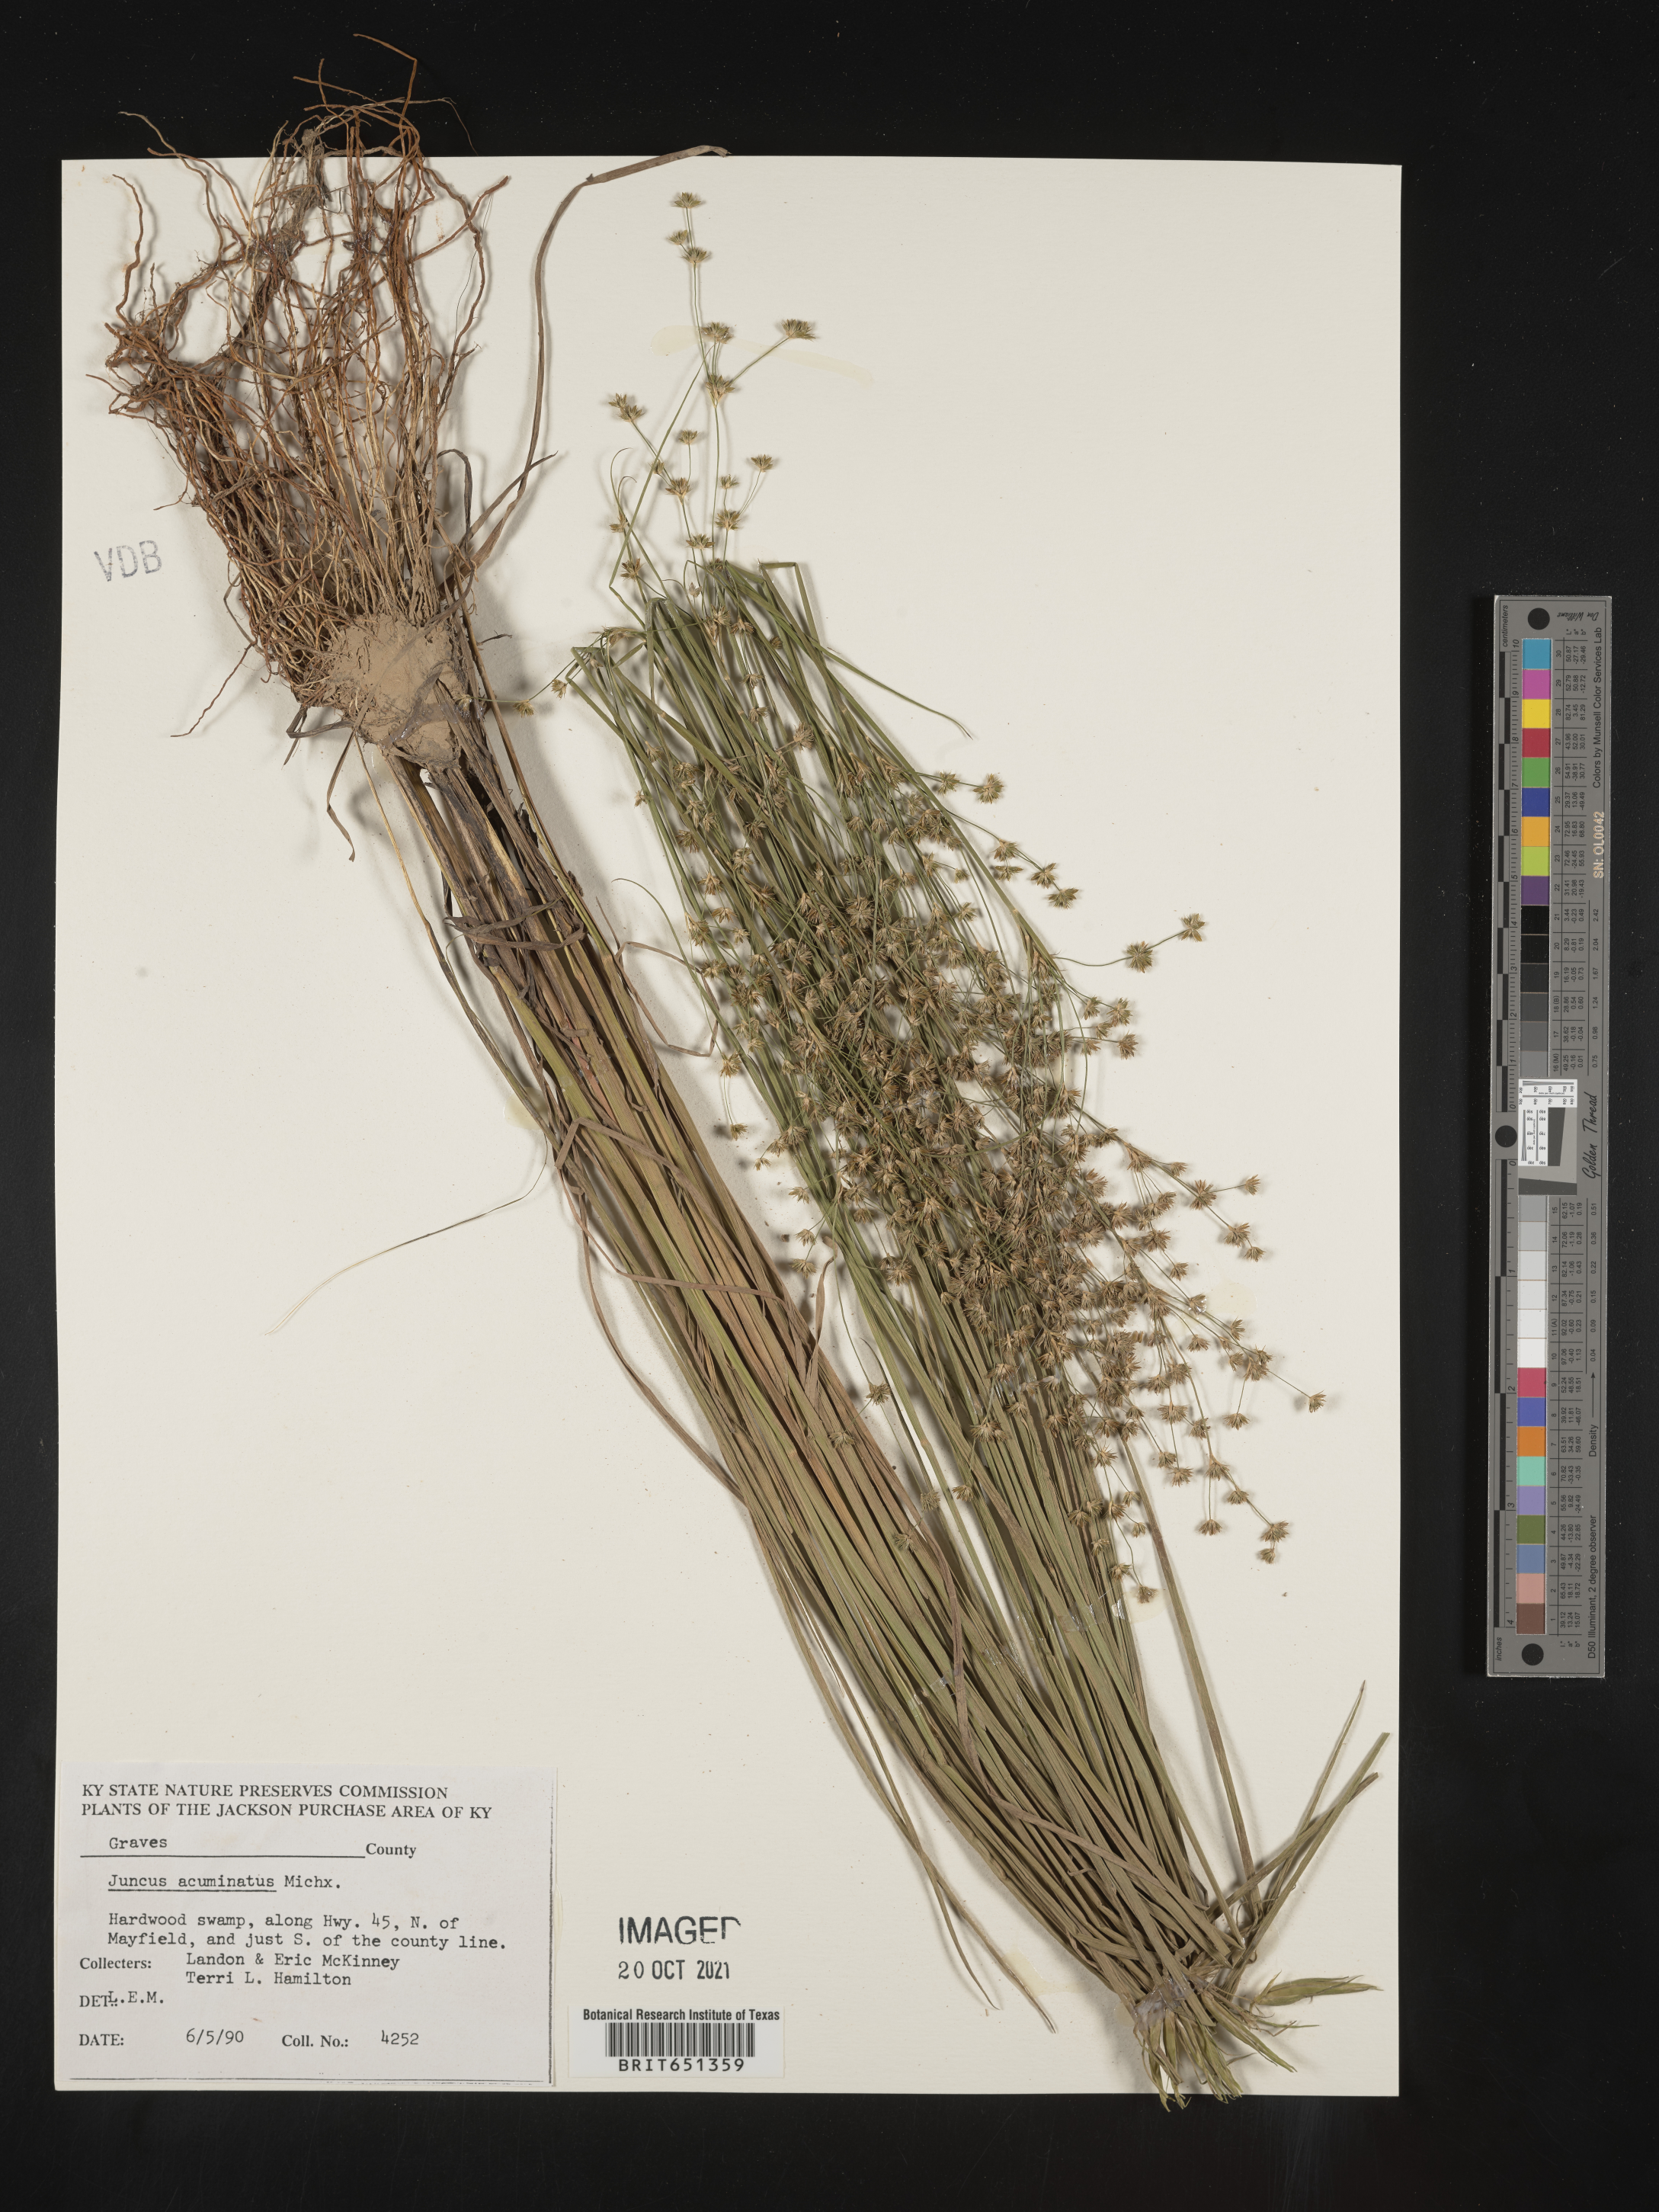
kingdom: Plantae
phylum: Tracheophyta
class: Liliopsida
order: Poales
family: Juncaceae
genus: Juncus
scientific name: Juncus acuminatus
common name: Knotty-leaved rush
